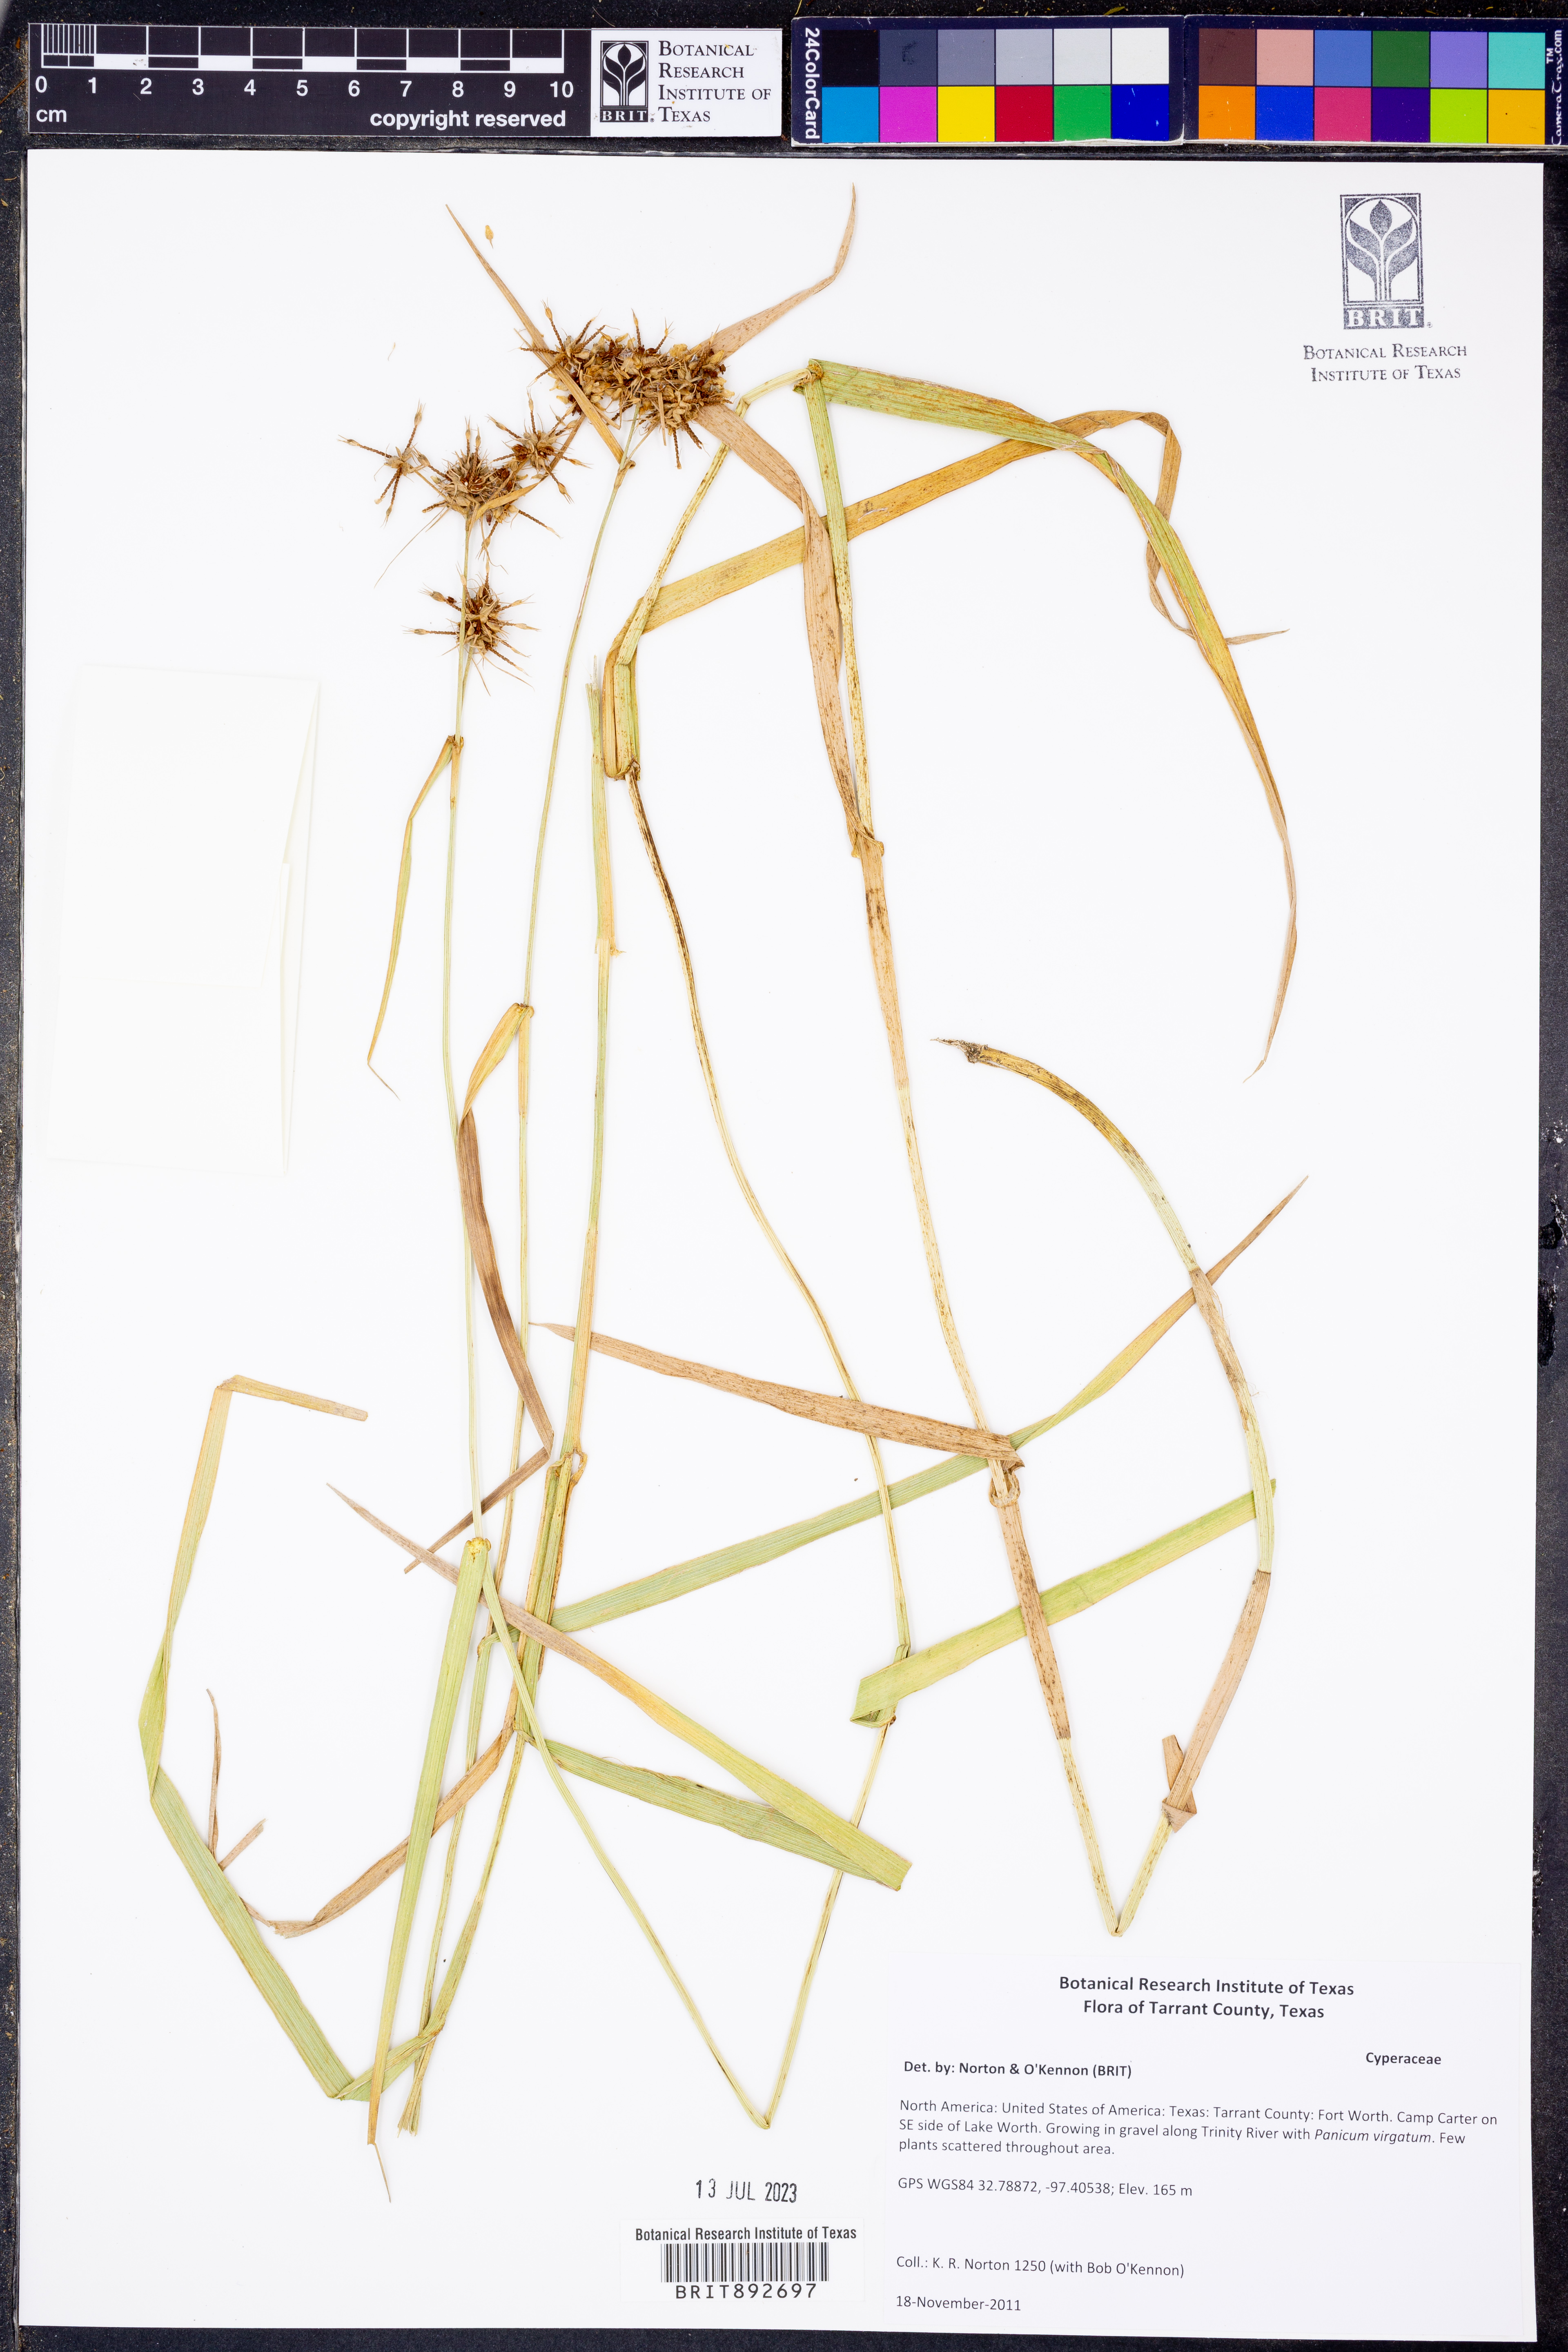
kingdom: Plantae
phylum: Tracheophyta
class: Liliopsida
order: Poales
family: Cyperaceae
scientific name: Cyperaceae
